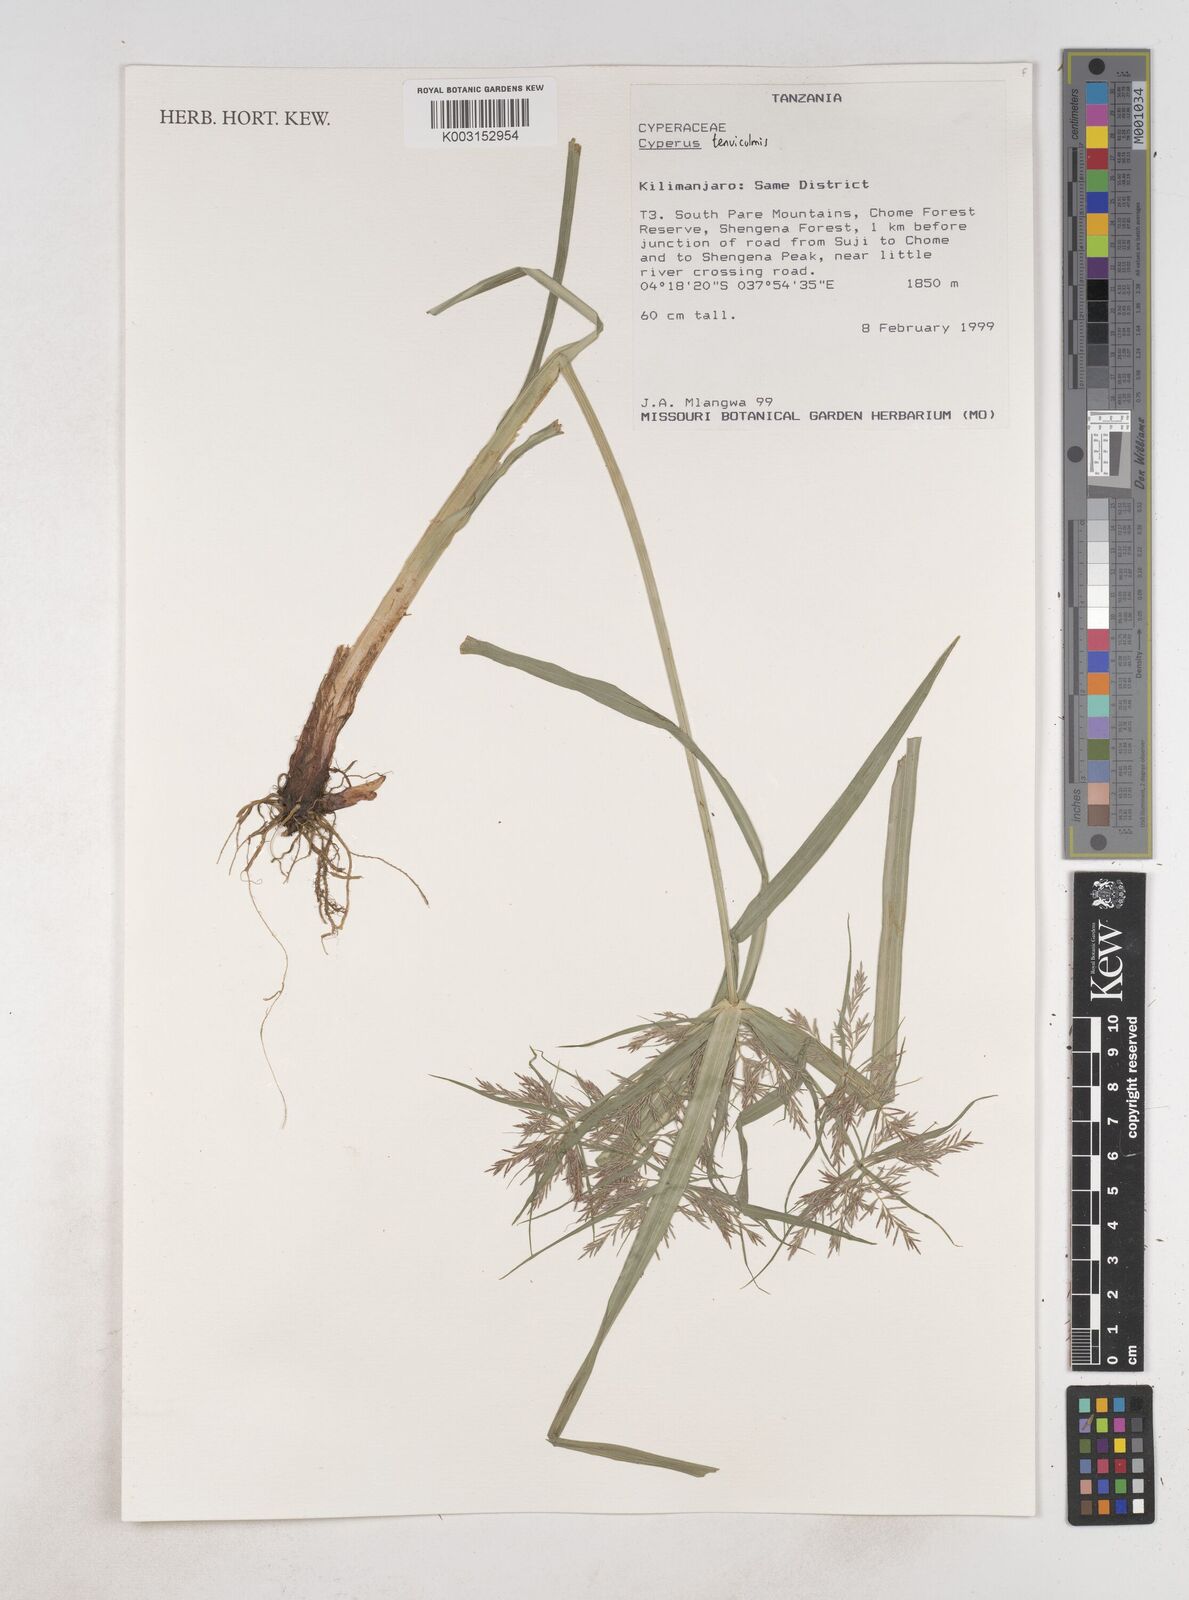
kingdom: Plantae
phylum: Tracheophyta
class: Liliopsida
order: Poales
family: Cyperaceae
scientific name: Cyperaceae
